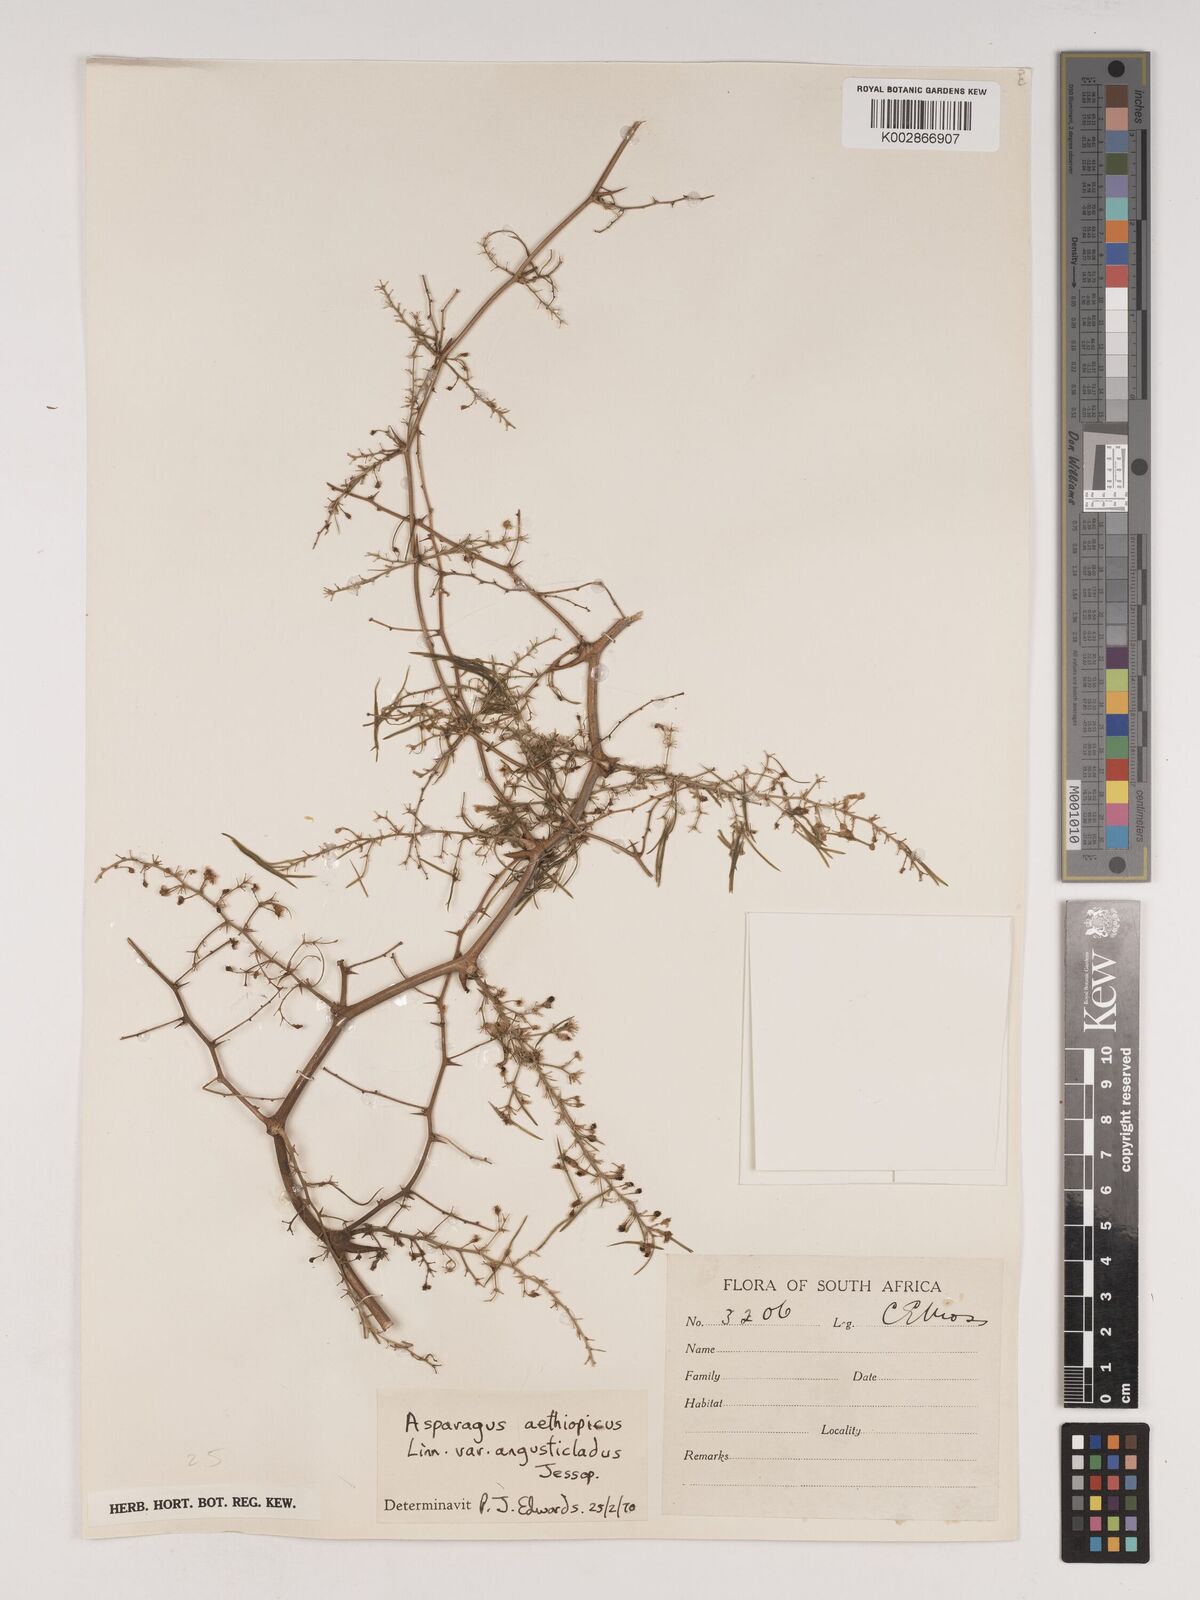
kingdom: Plantae
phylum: Tracheophyta
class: Liliopsida
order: Asparagales
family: Asparagaceae
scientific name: Asparagaceae
